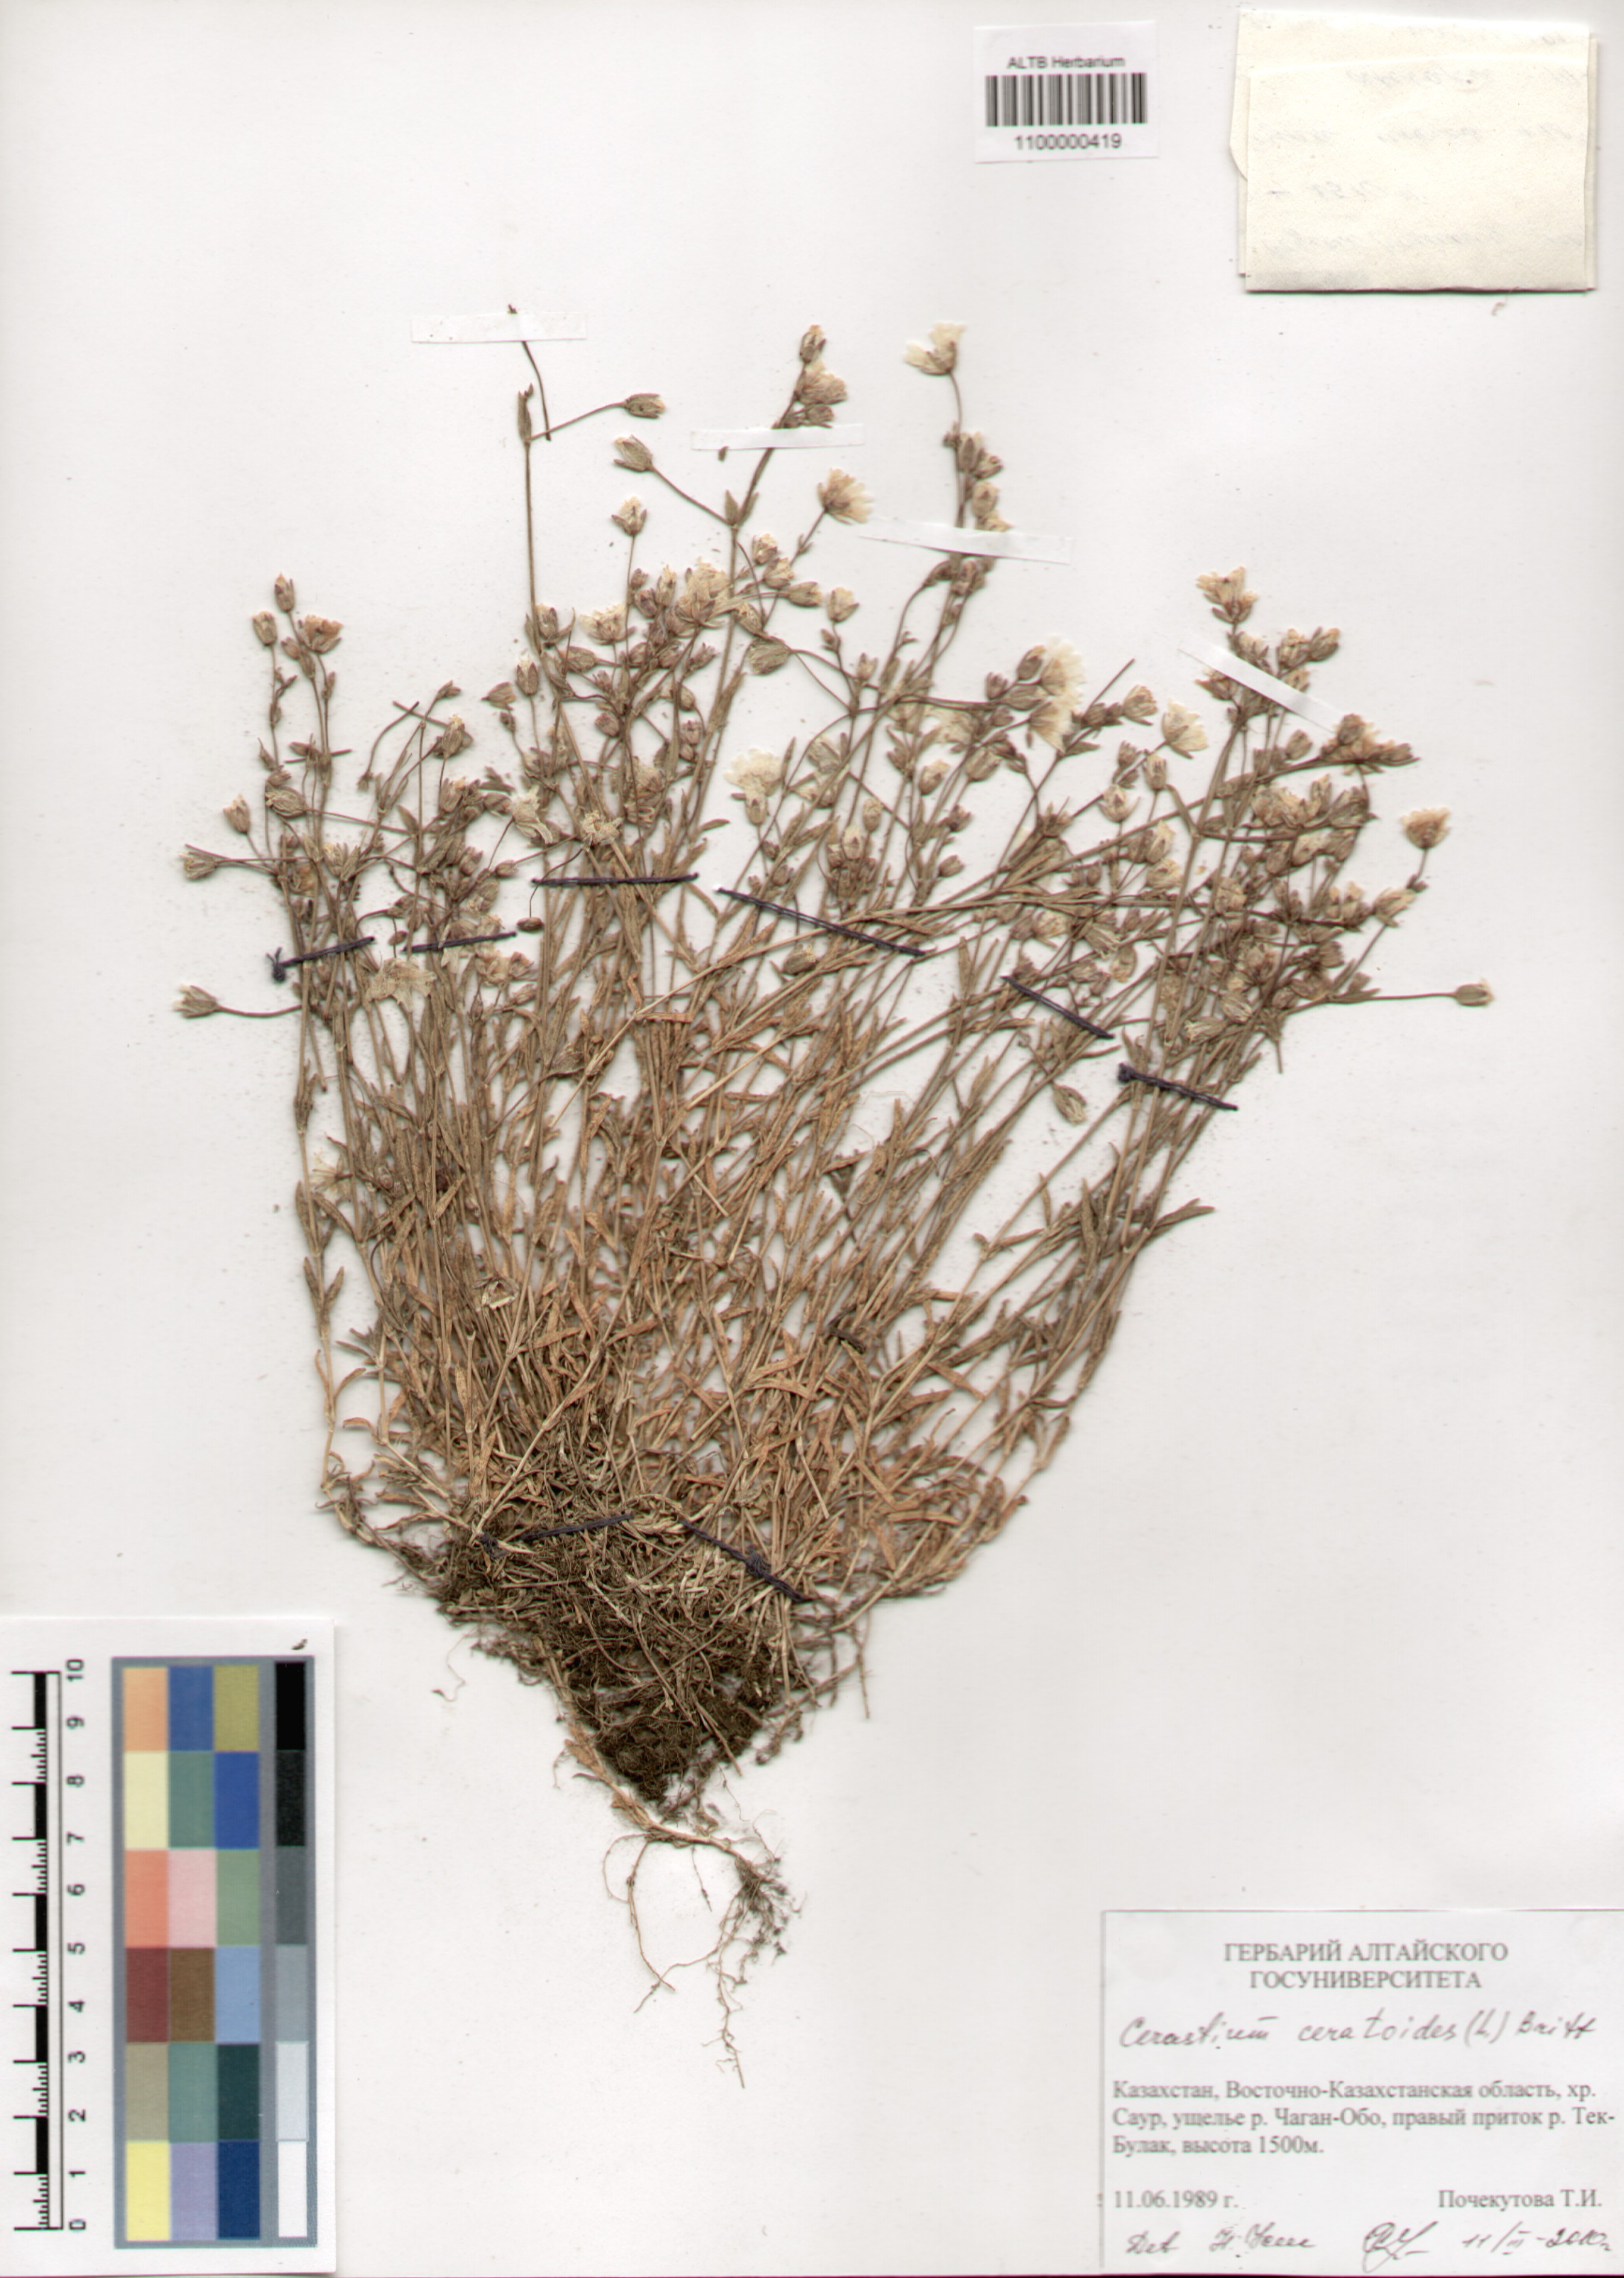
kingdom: Plantae
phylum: Tracheophyta
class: Magnoliopsida
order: Caryophyllales
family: Caryophyllaceae
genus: Dichodon
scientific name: Dichodon cerastoides
